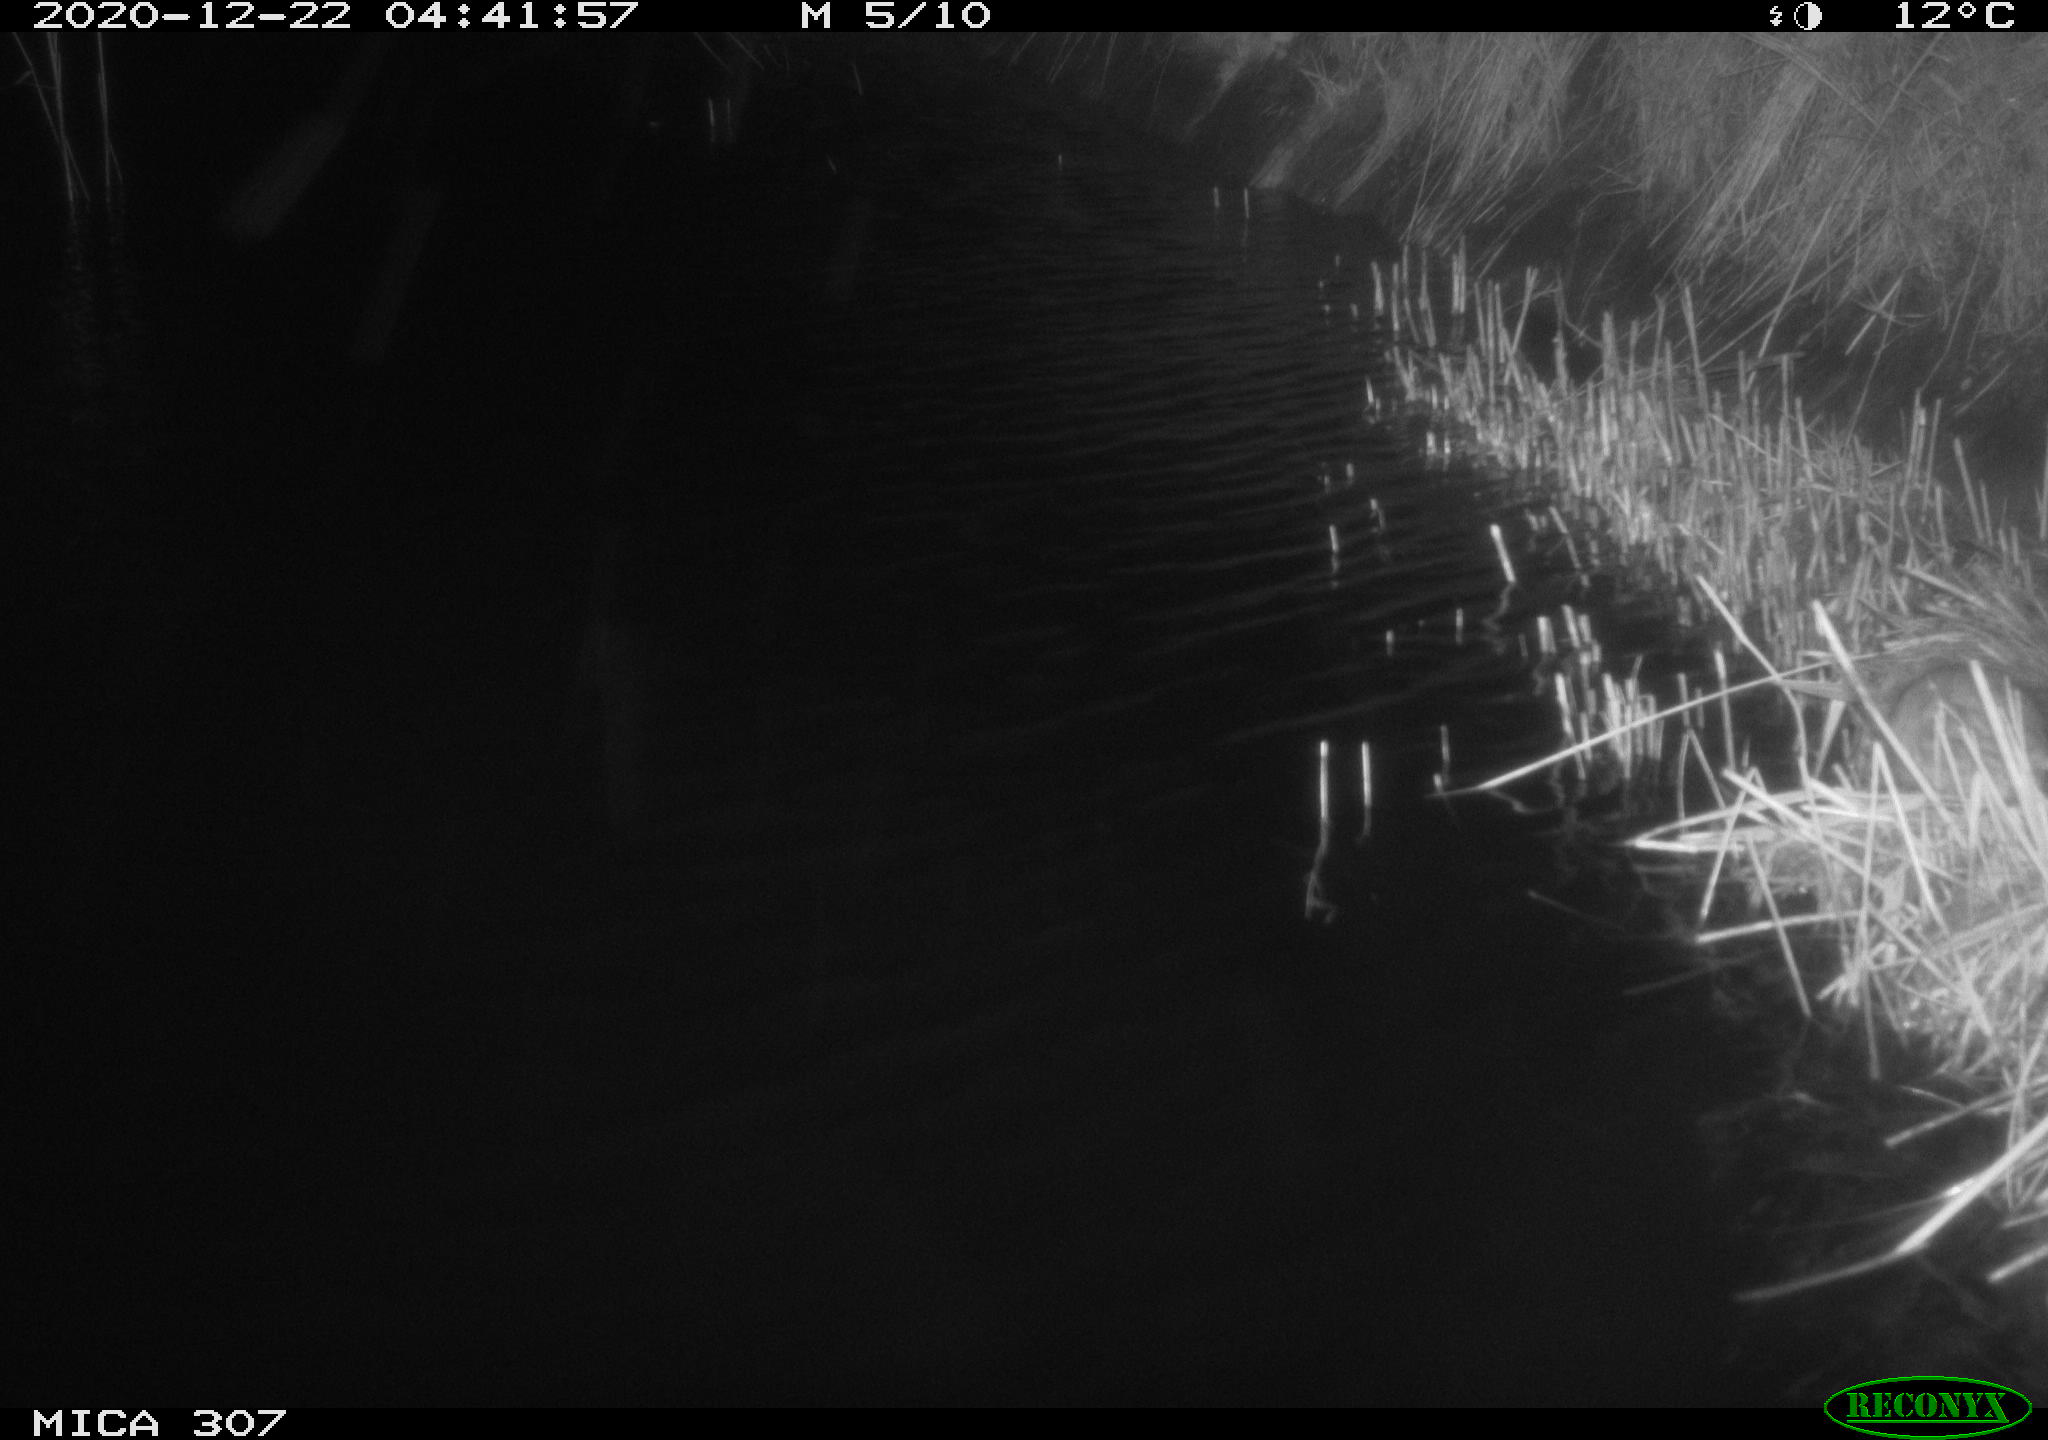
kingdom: Animalia
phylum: Chordata
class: Mammalia
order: Rodentia
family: Muridae
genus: Rattus
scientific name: Rattus norvegicus
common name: Brown rat
